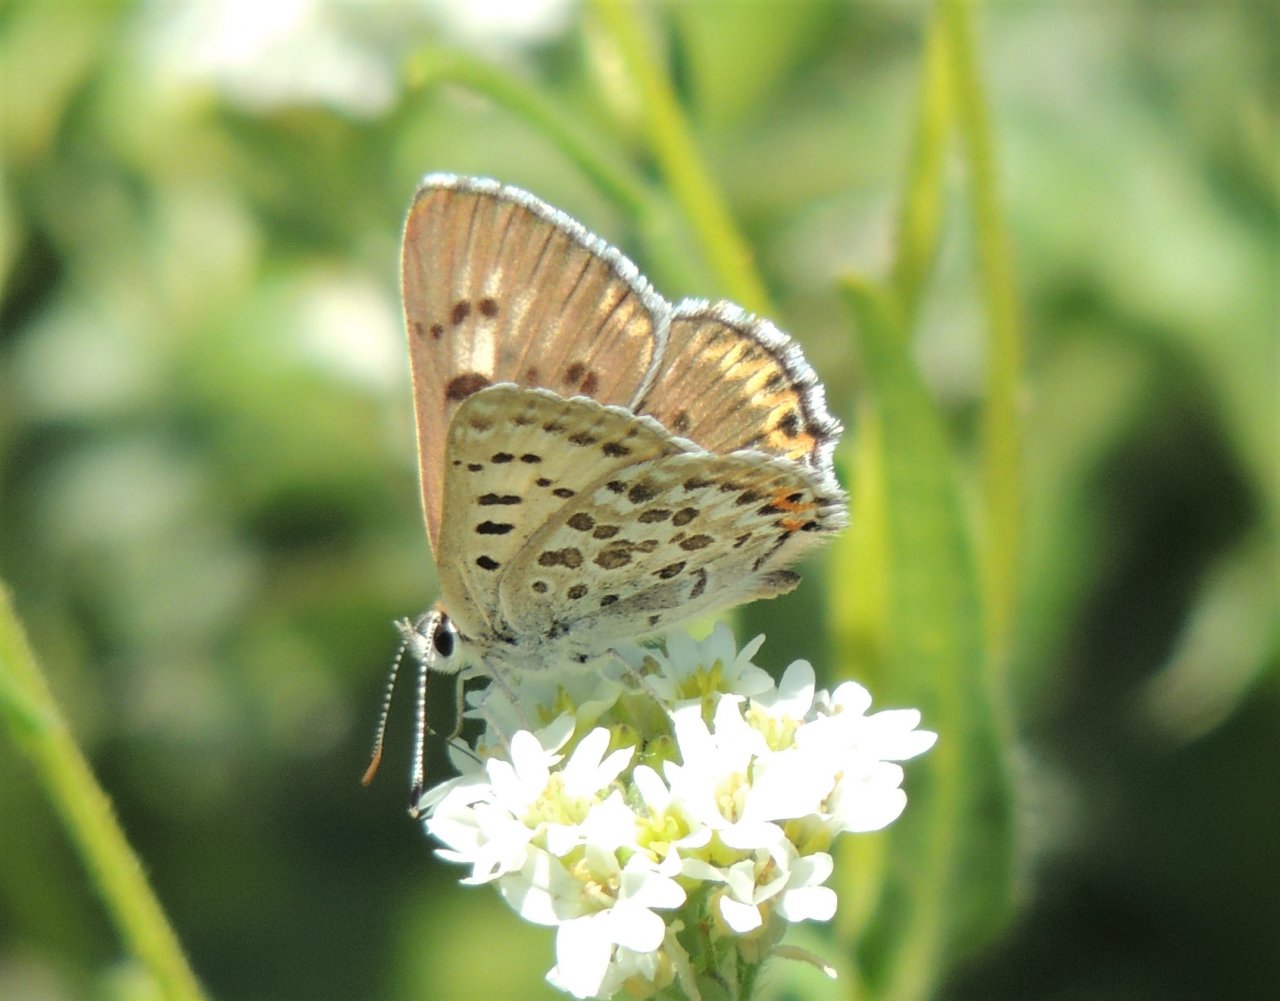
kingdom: Animalia
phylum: Arthropoda
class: Insecta
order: Lepidoptera
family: Lycaenidae
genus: Lycaena
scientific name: Lycaena editha
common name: Edith's Copper
